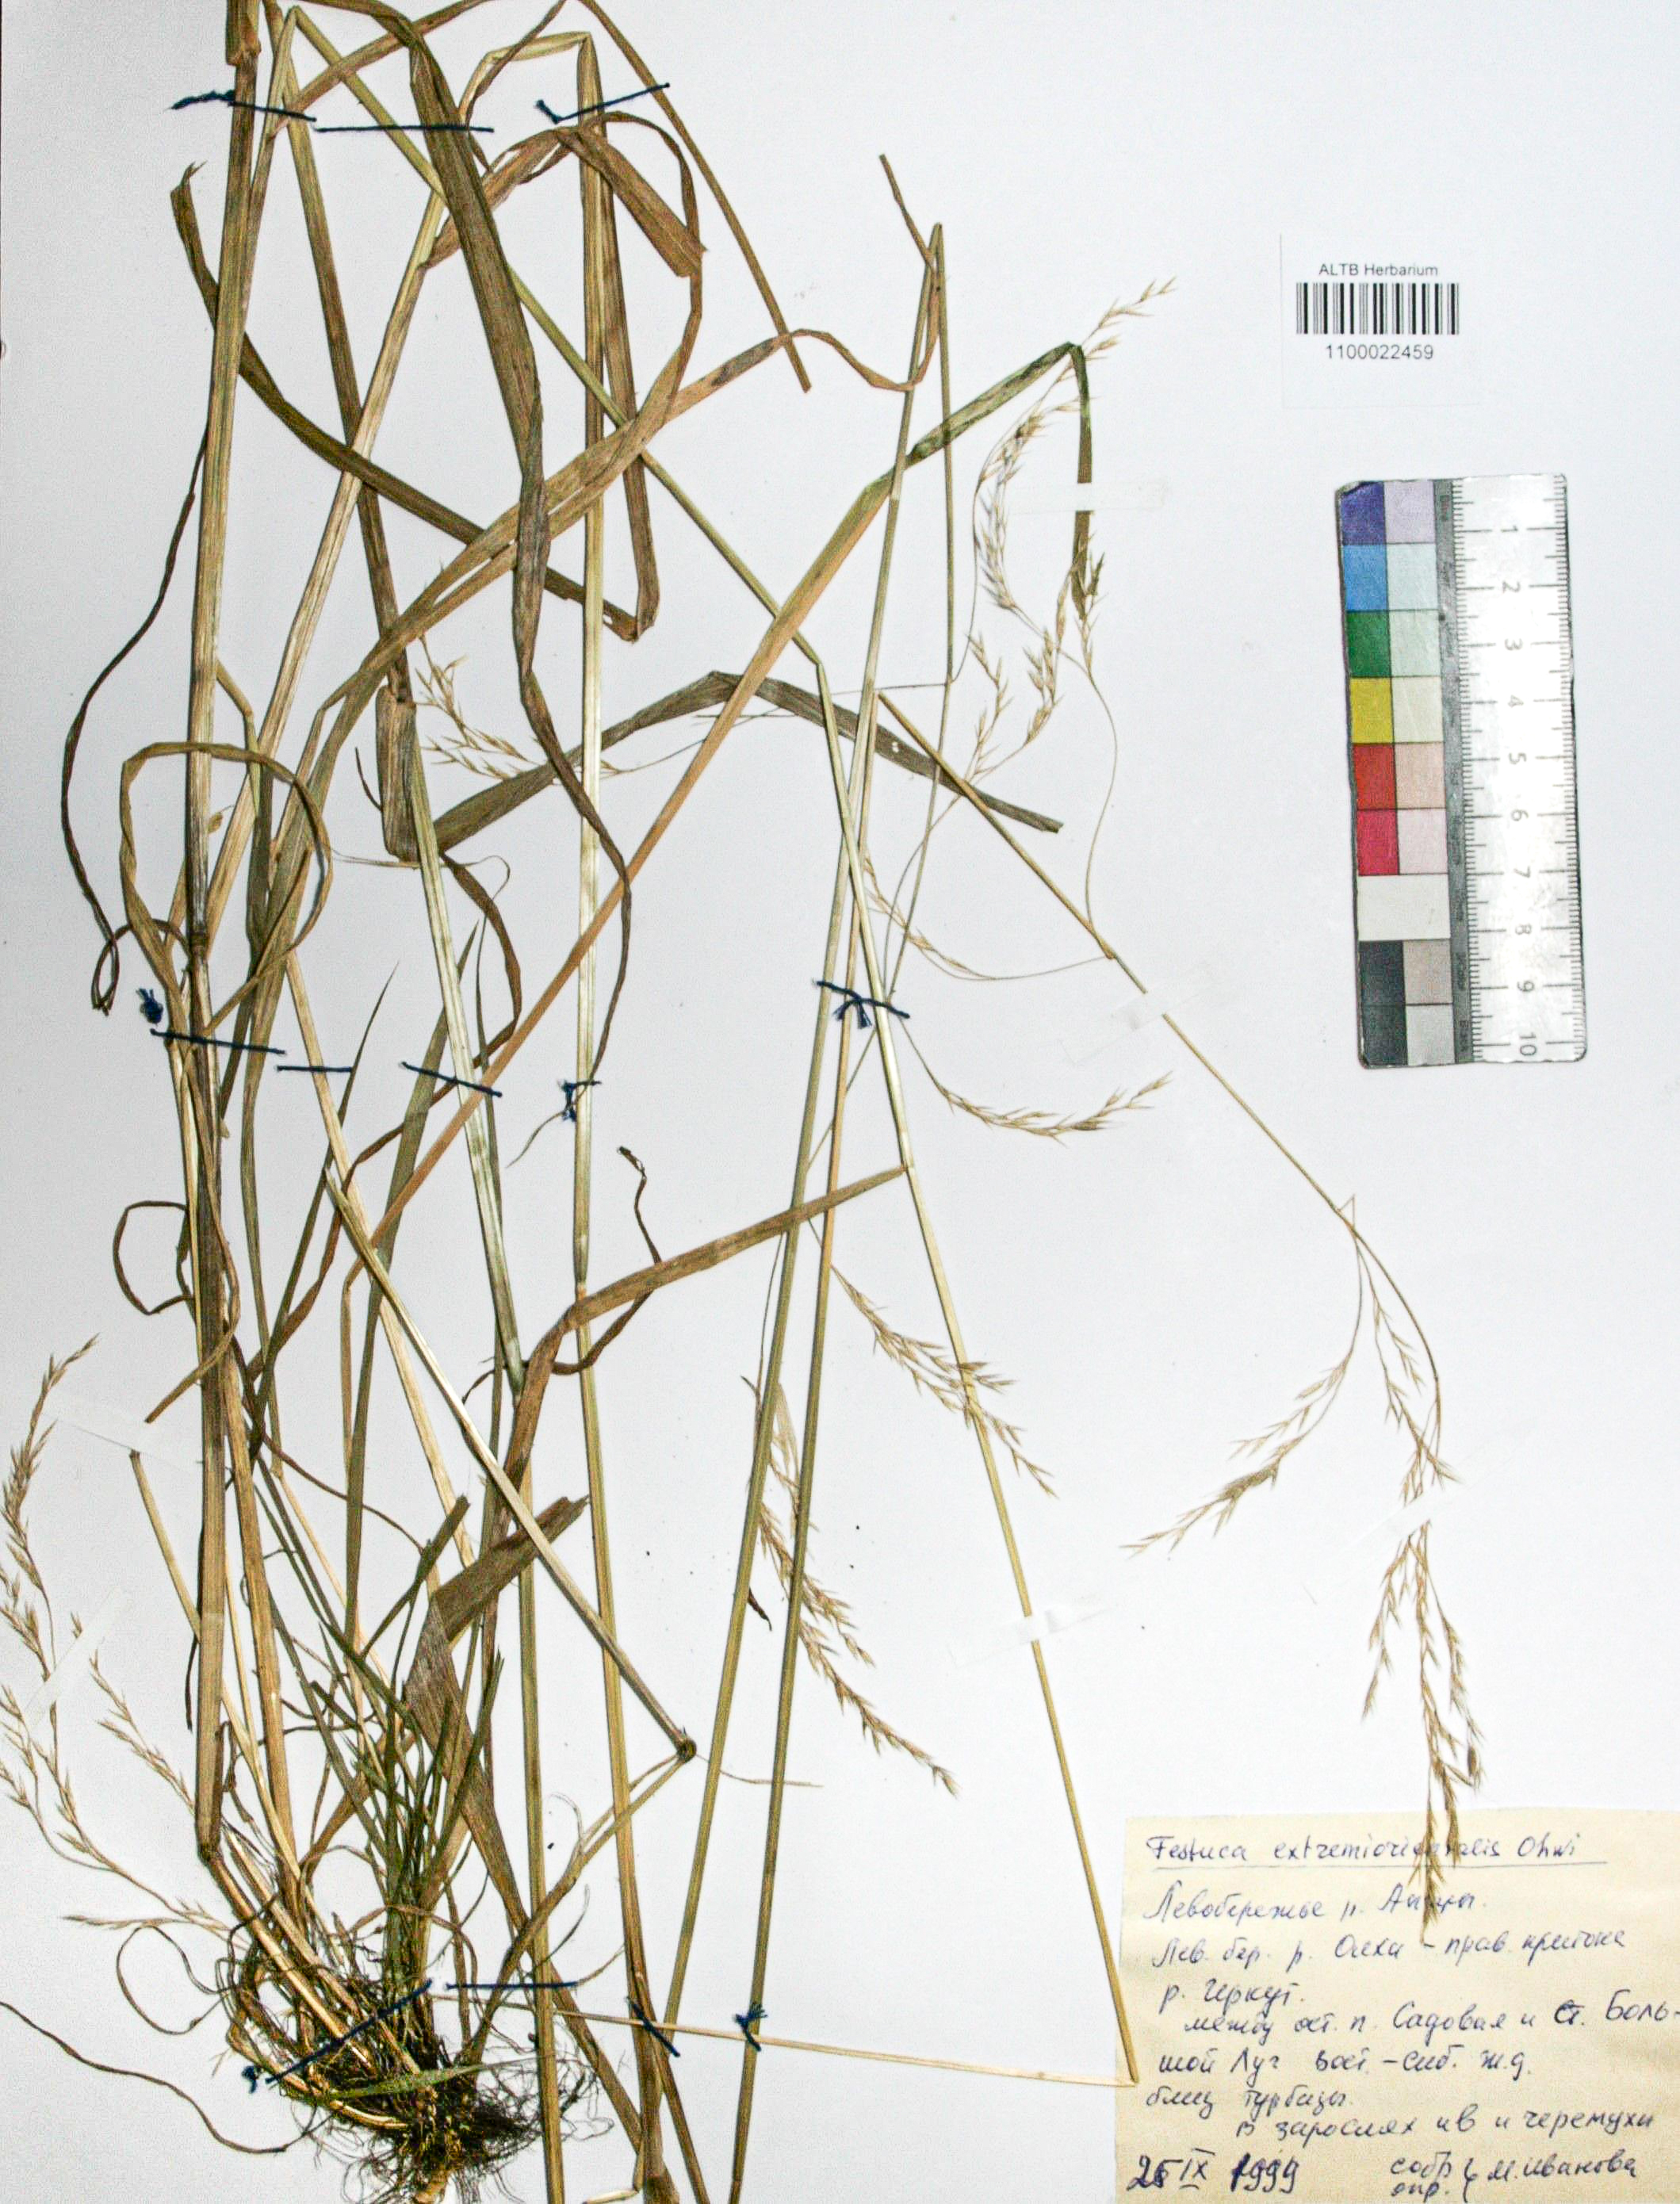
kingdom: Plantae
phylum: Tracheophyta
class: Liliopsida
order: Poales
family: Poaceae
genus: Festuca
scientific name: Festuca extremiorientalis
